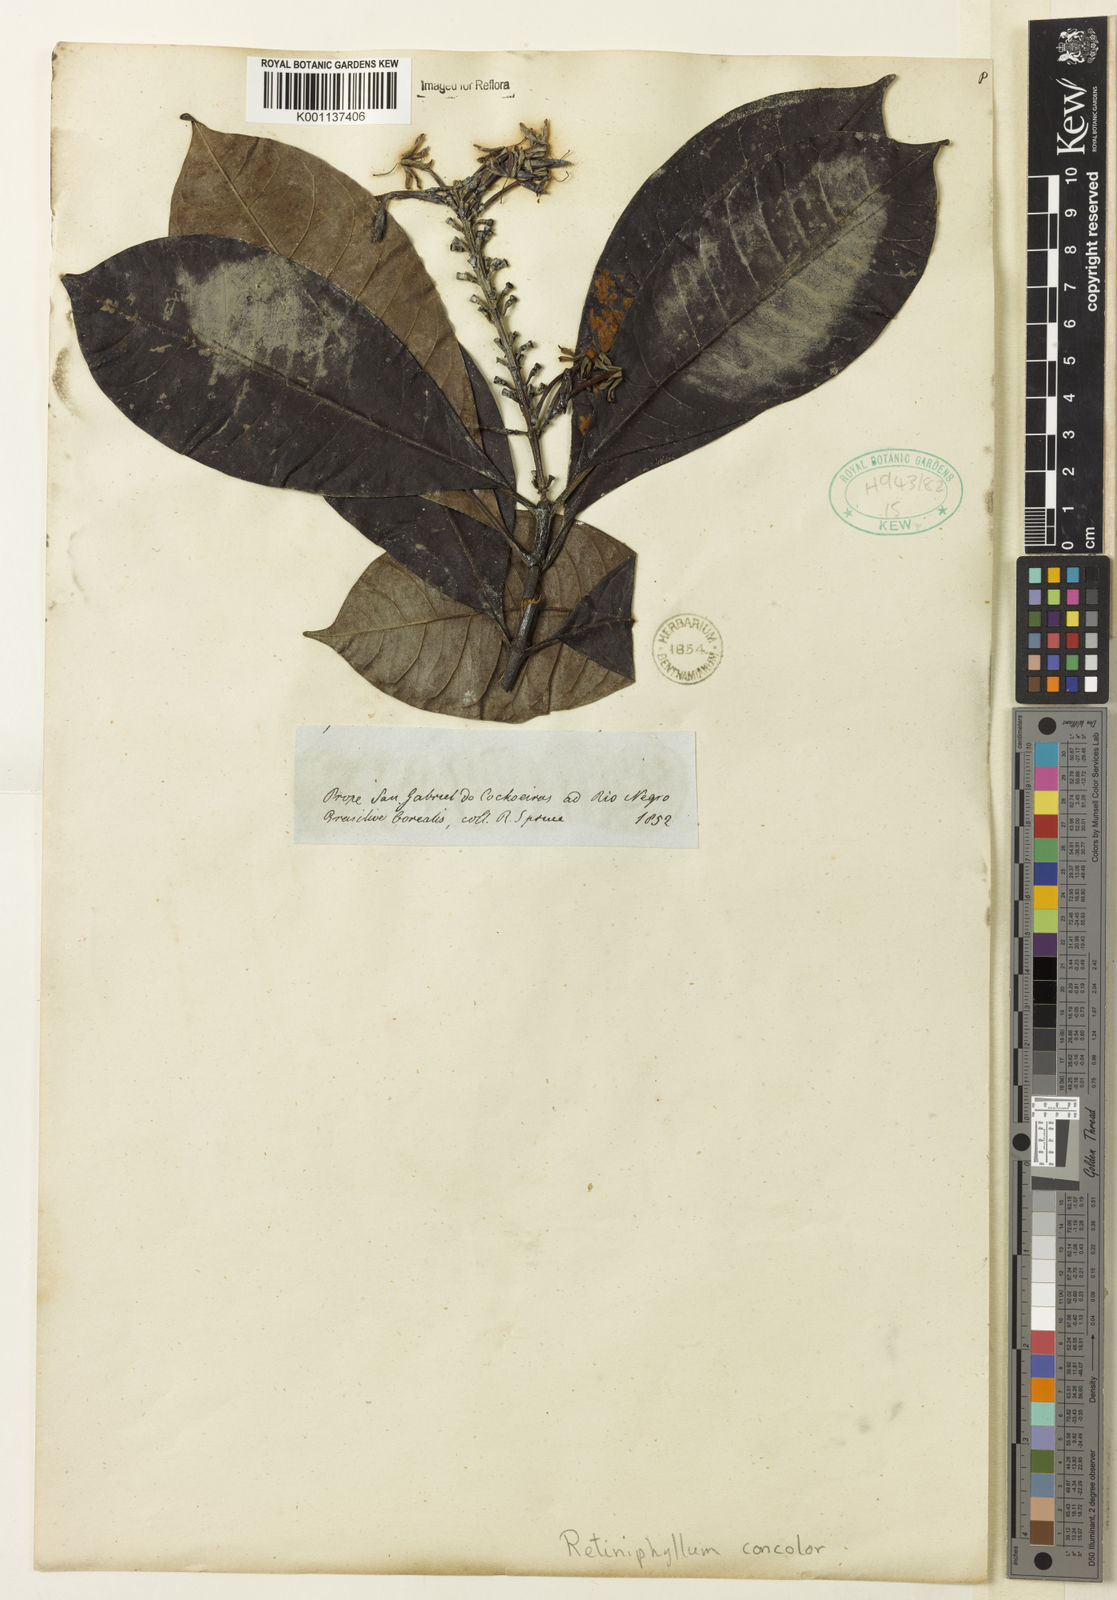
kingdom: Plantae
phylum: Tracheophyta
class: Magnoliopsida
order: Gentianales
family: Rubiaceae
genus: Retiniphyllum
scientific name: Retiniphyllum
